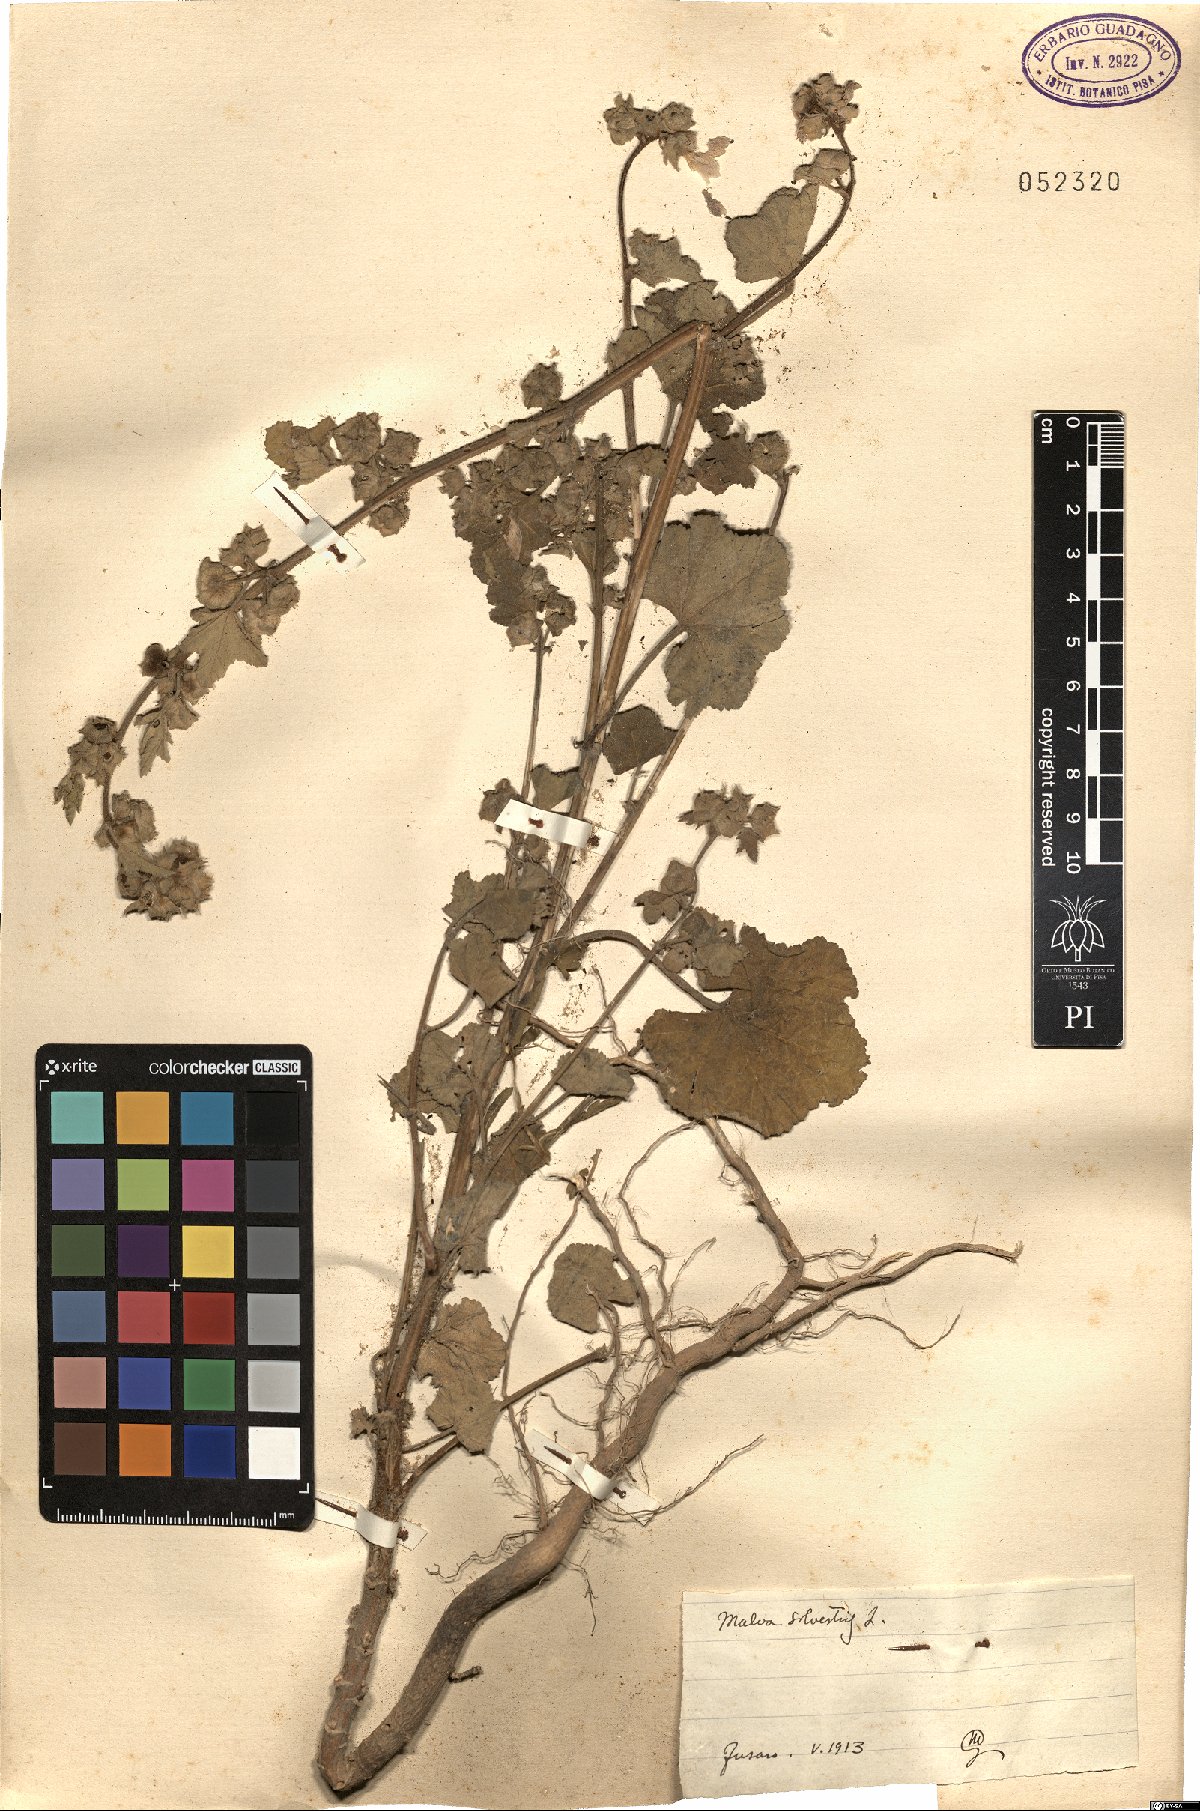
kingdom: Plantae
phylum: Tracheophyta
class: Magnoliopsida
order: Malvales
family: Malvaceae
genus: Malva
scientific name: Malva sylvestris
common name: Common mallow
